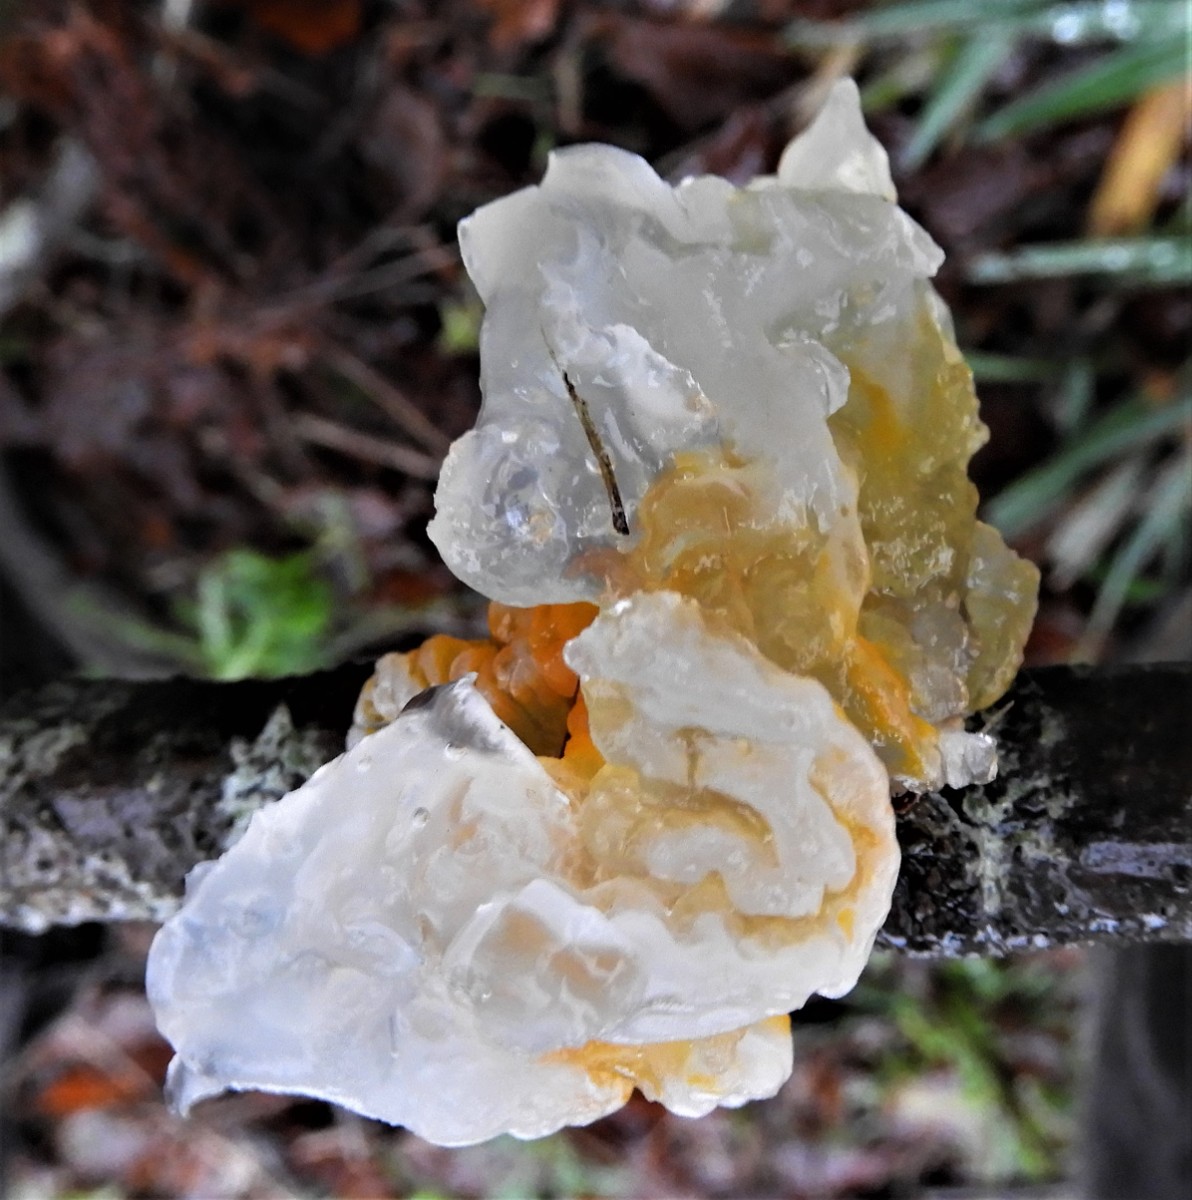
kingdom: Fungi
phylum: Basidiomycota
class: Tremellomycetes
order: Tremellales
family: Tremellaceae
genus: Tremella
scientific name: Tremella mesenterica
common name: gul bævresvamp
